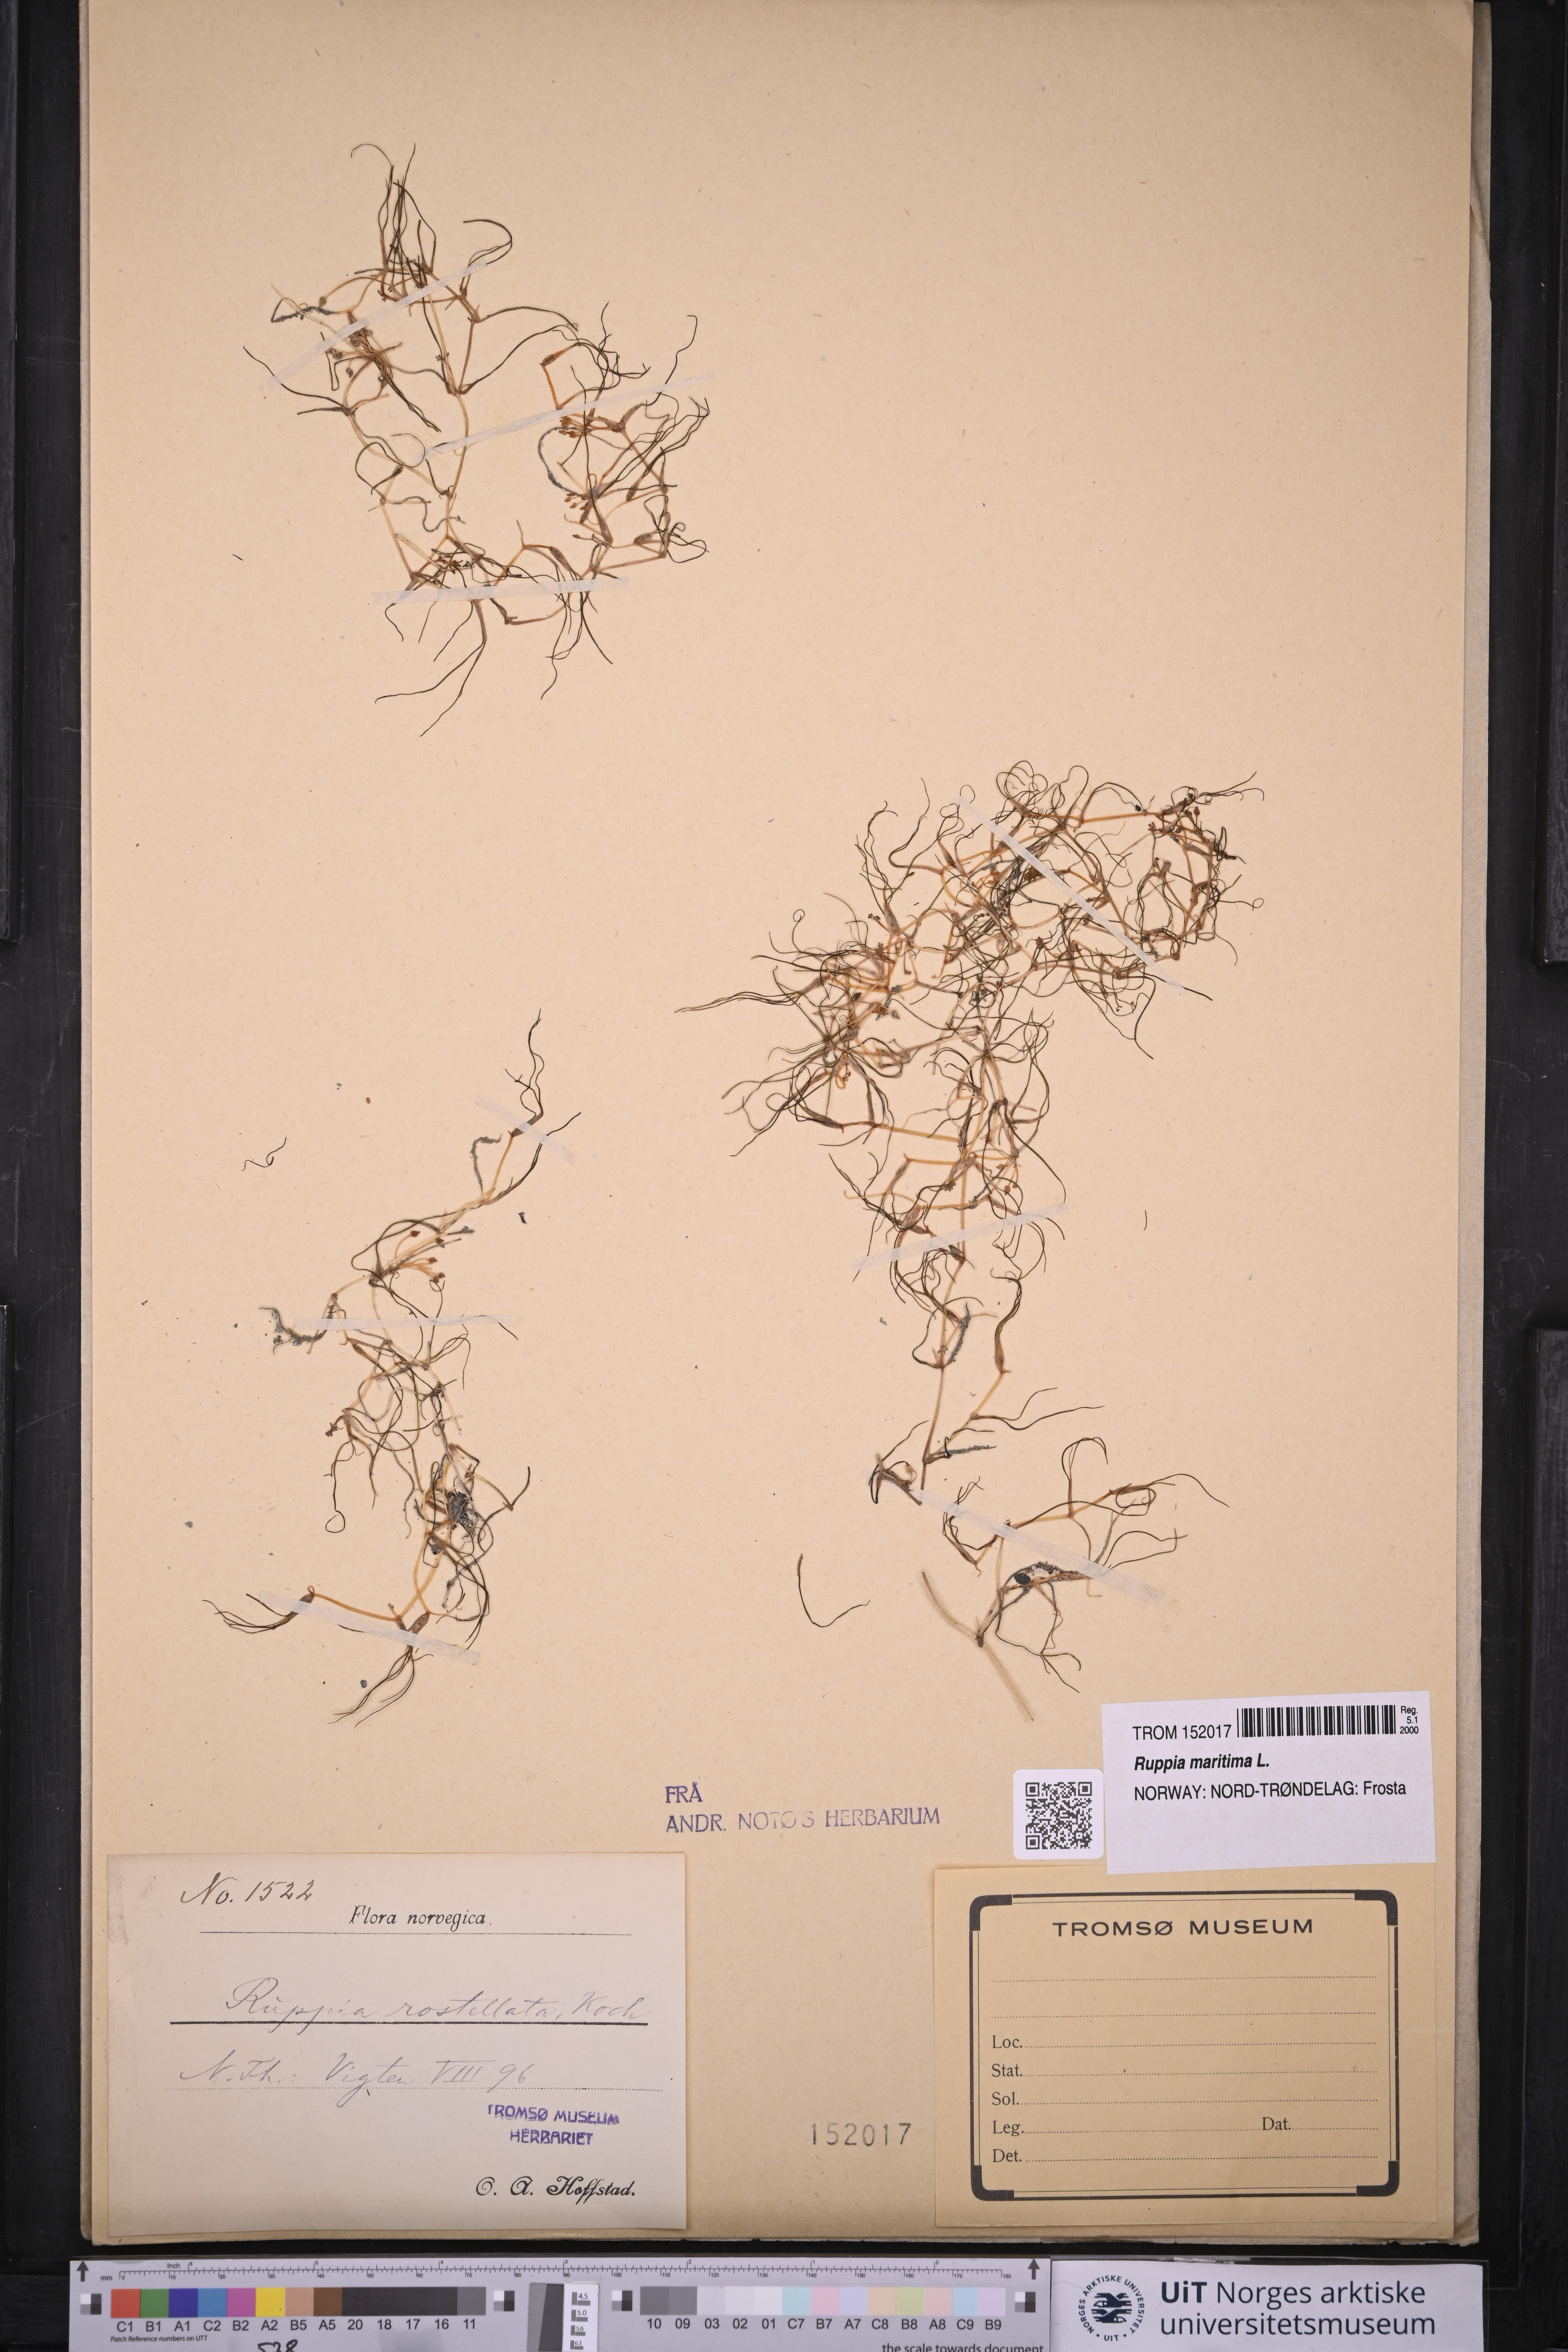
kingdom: Plantae
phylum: Tracheophyta
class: Liliopsida
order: Alismatales
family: Ruppiaceae
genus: Ruppia
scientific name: Ruppia maritima
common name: Beaked tasselweed
